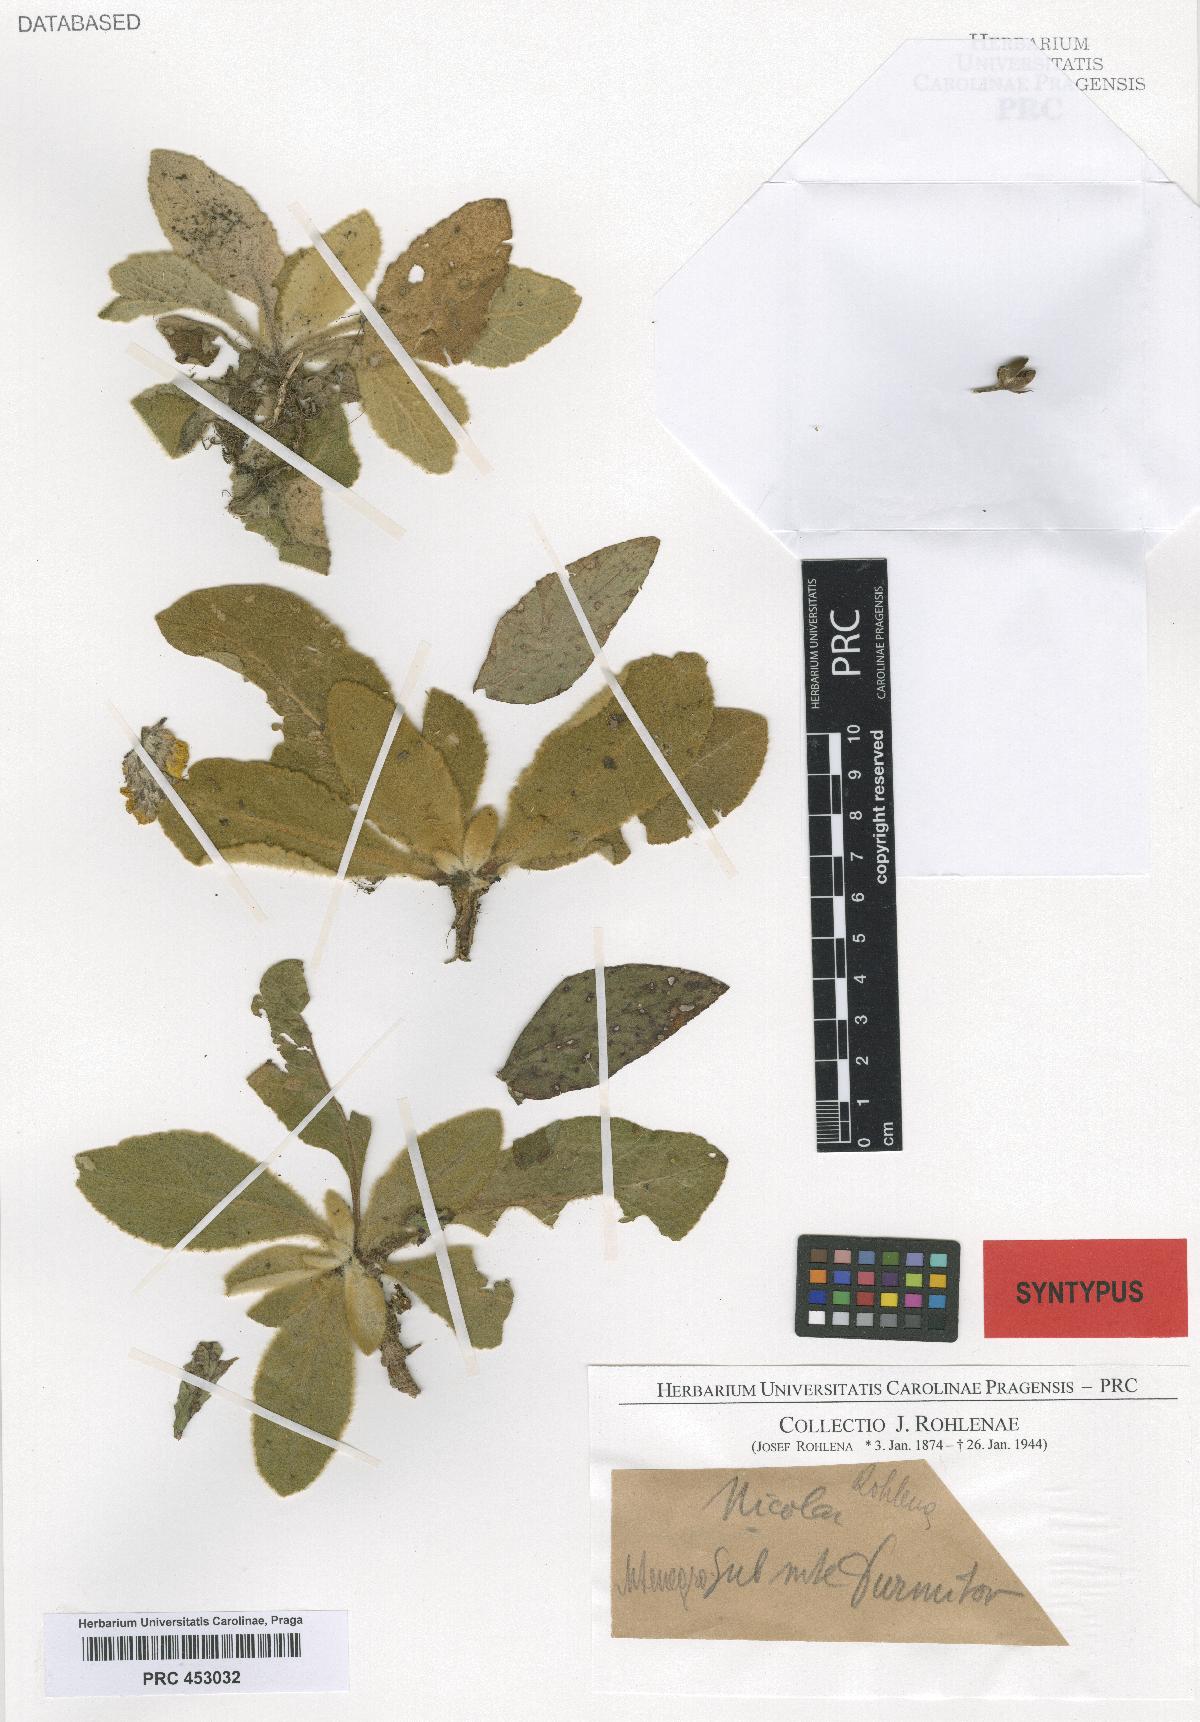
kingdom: Plantae
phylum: Tracheophyta
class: Magnoliopsida
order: Lamiales
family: Scrophulariaceae
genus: Verbascum
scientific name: Verbascum nicolai
